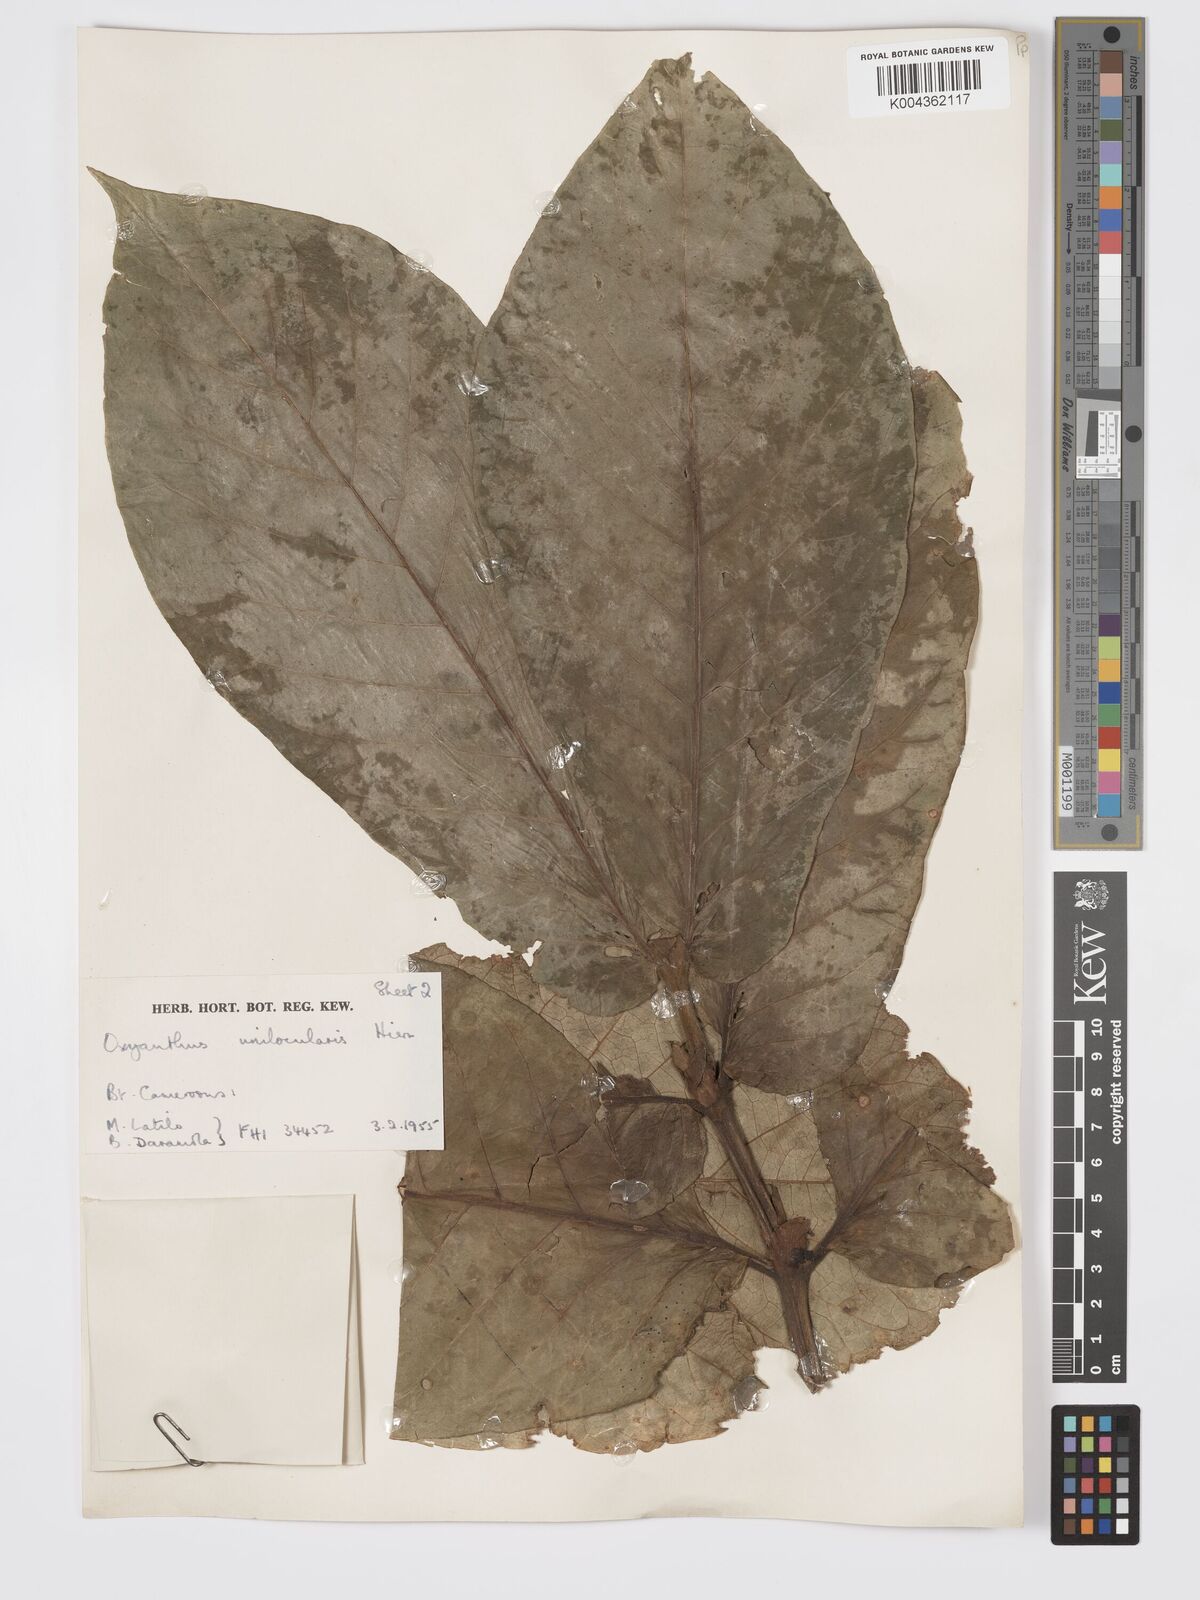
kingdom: Plantae
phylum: Tracheophyta
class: Magnoliopsida
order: Gentianales
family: Rubiaceae
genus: Oxyanthus
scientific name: Oxyanthus unilocularis
